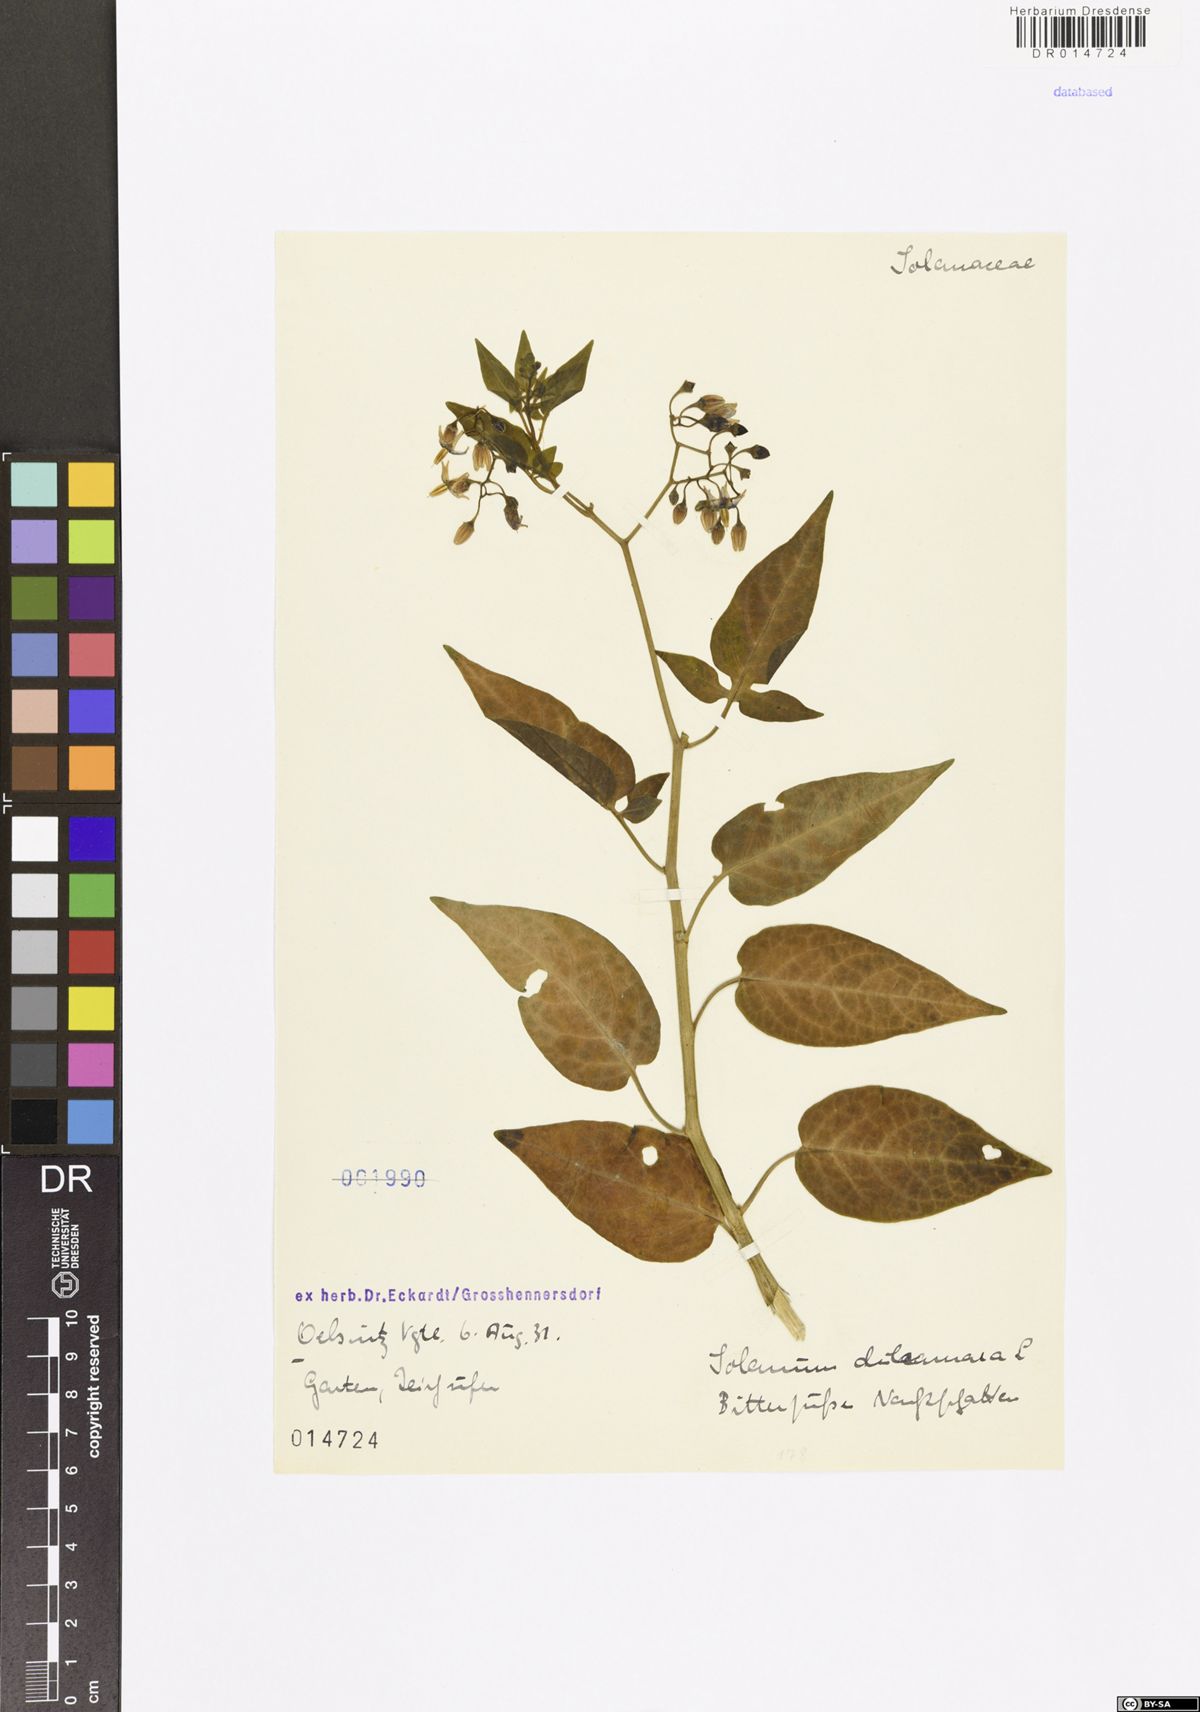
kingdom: Plantae
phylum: Tracheophyta
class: Magnoliopsida
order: Solanales
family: Solanaceae
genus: Solanum
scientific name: Solanum dulcamara
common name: Climbing nightshade
